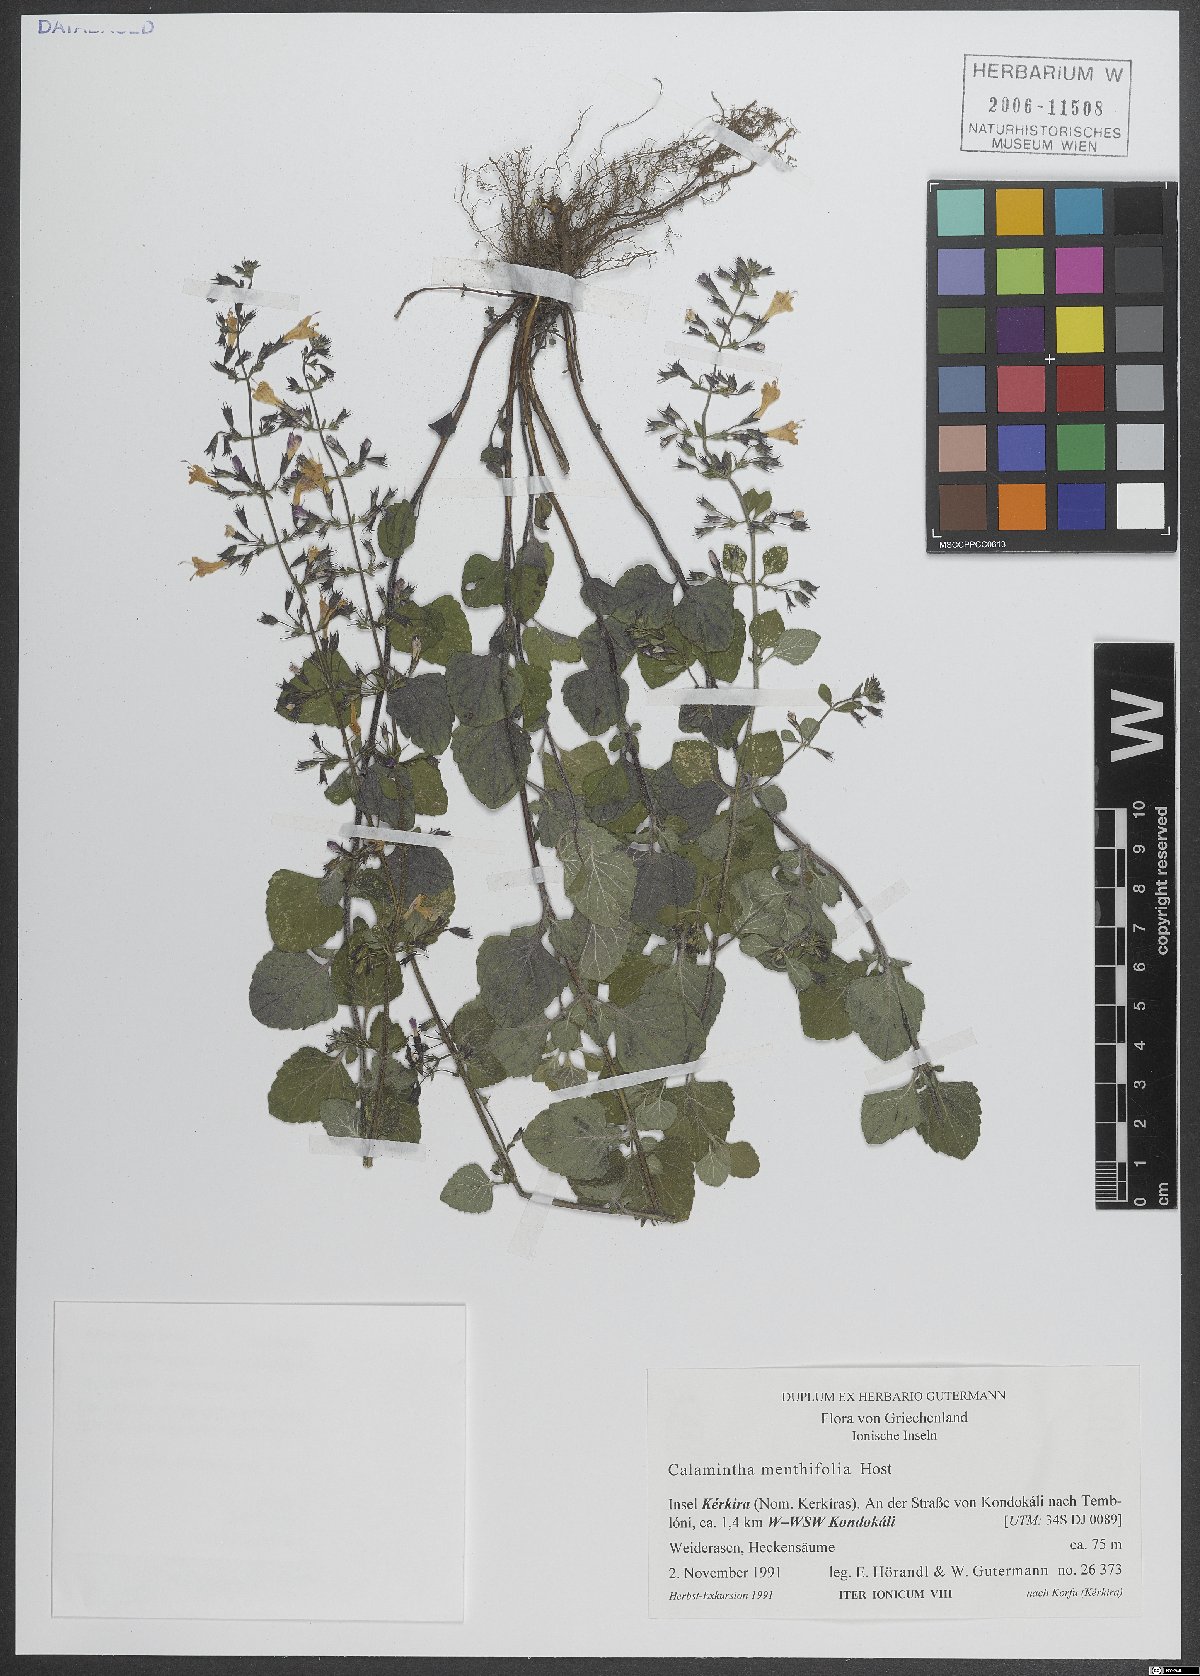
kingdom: Plantae
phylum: Tracheophyta
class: Magnoliopsida
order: Lamiales
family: Lamiaceae
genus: Clinopodium
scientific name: Clinopodium menthifolium
